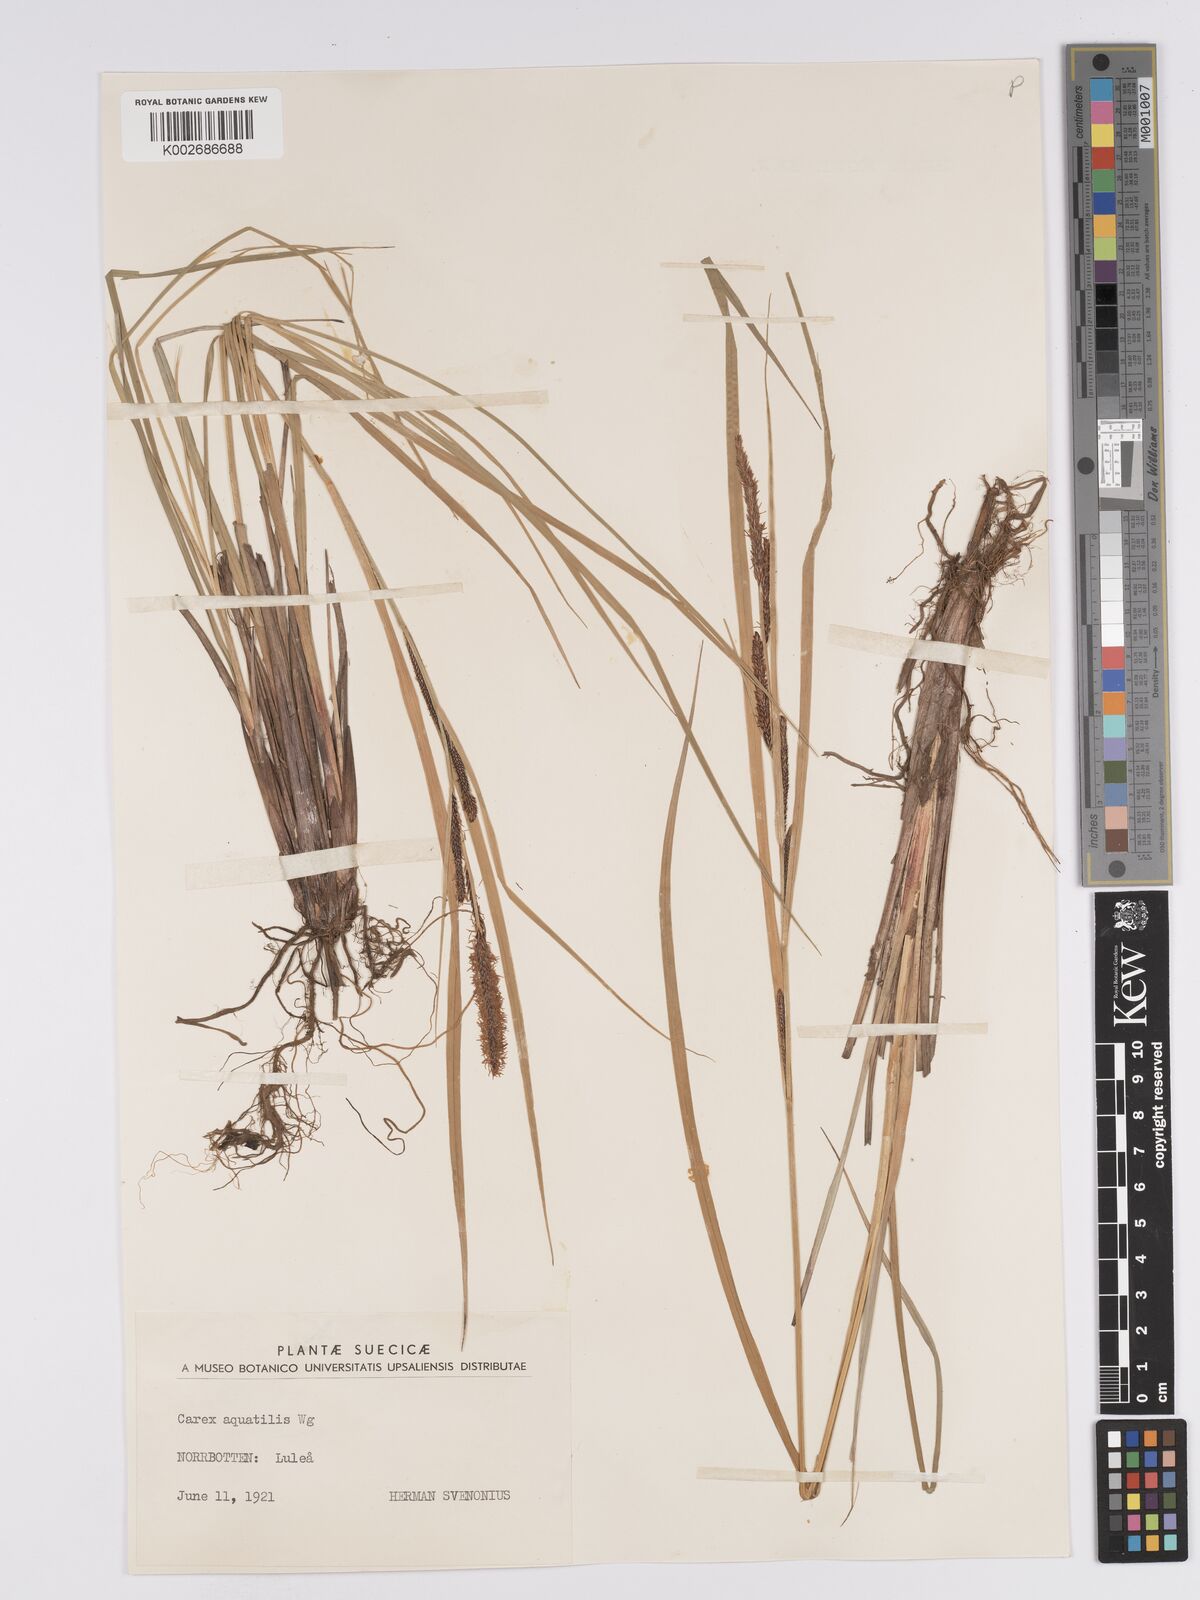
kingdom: Plantae
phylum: Tracheophyta
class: Liliopsida
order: Poales
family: Cyperaceae
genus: Carex
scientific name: Carex aquatilis
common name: Water sedge
